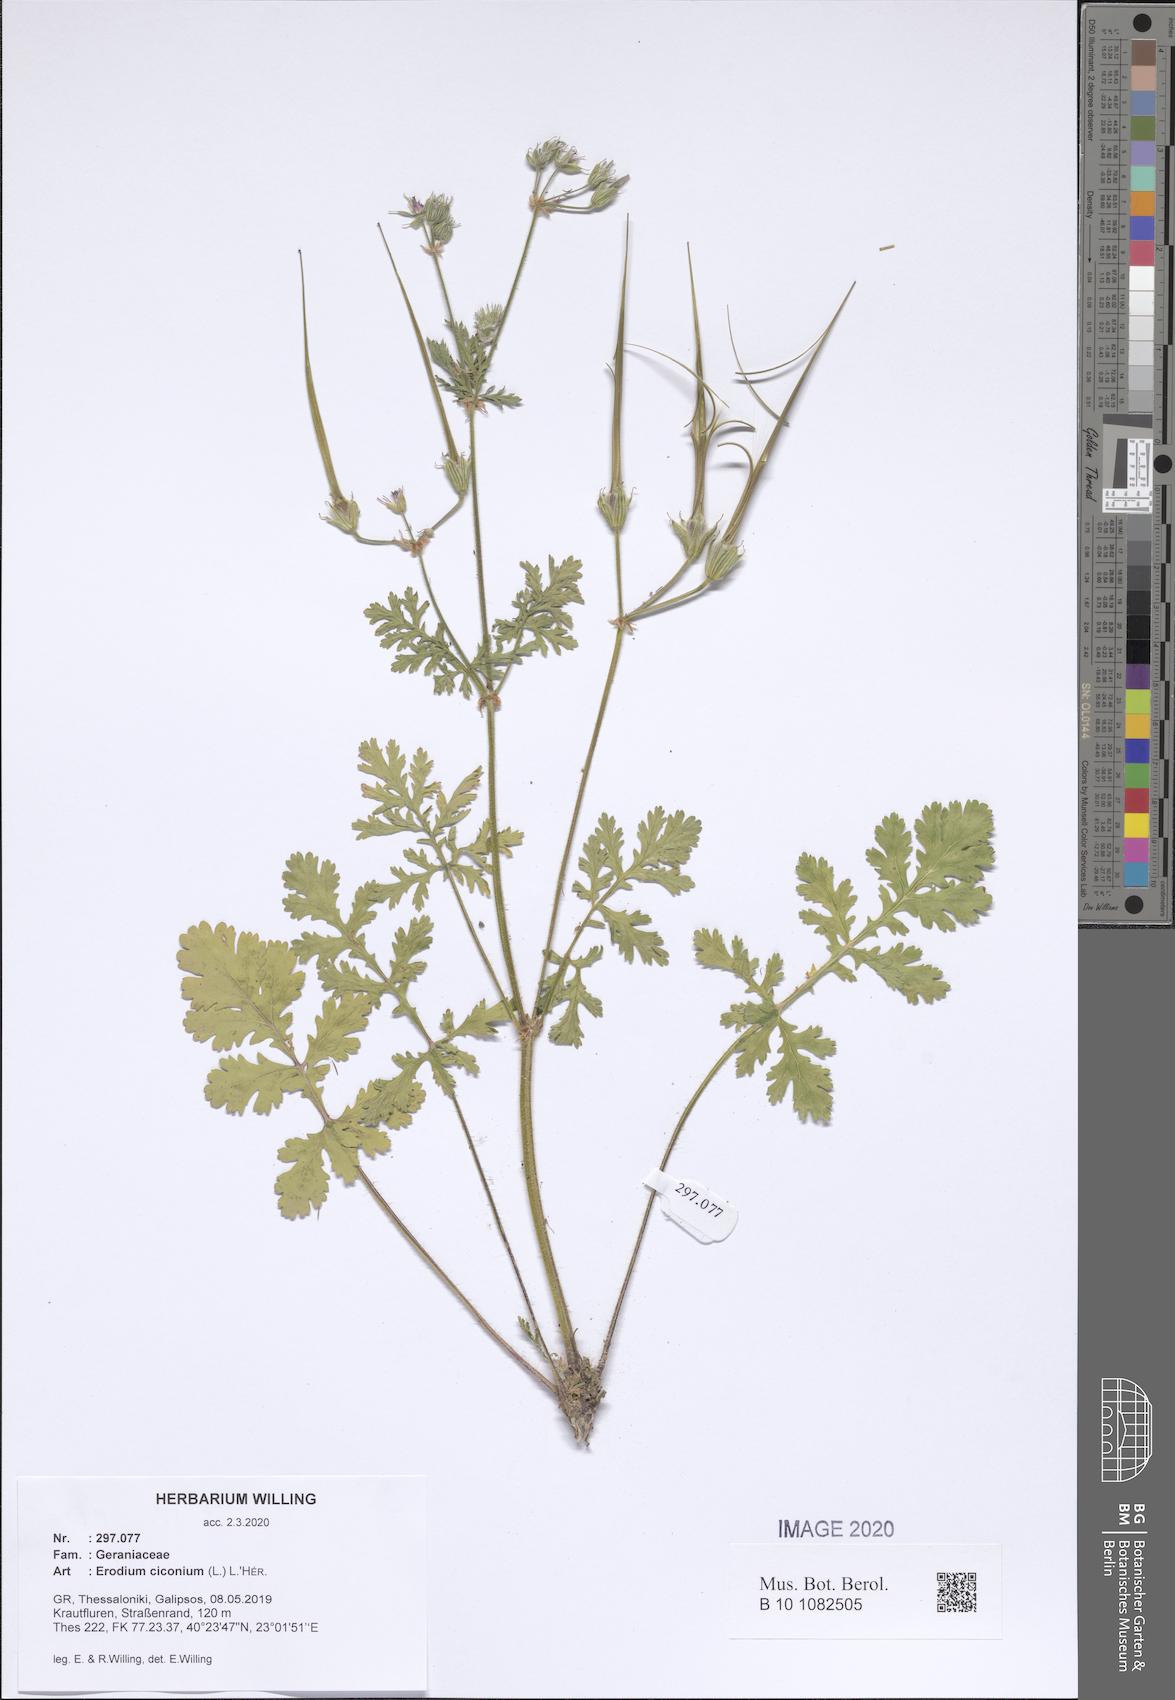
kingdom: Plantae
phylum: Tracheophyta
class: Magnoliopsida
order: Geraniales
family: Geraniaceae
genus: Erodium
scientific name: Erodium ciconium
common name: Common stork's bill
